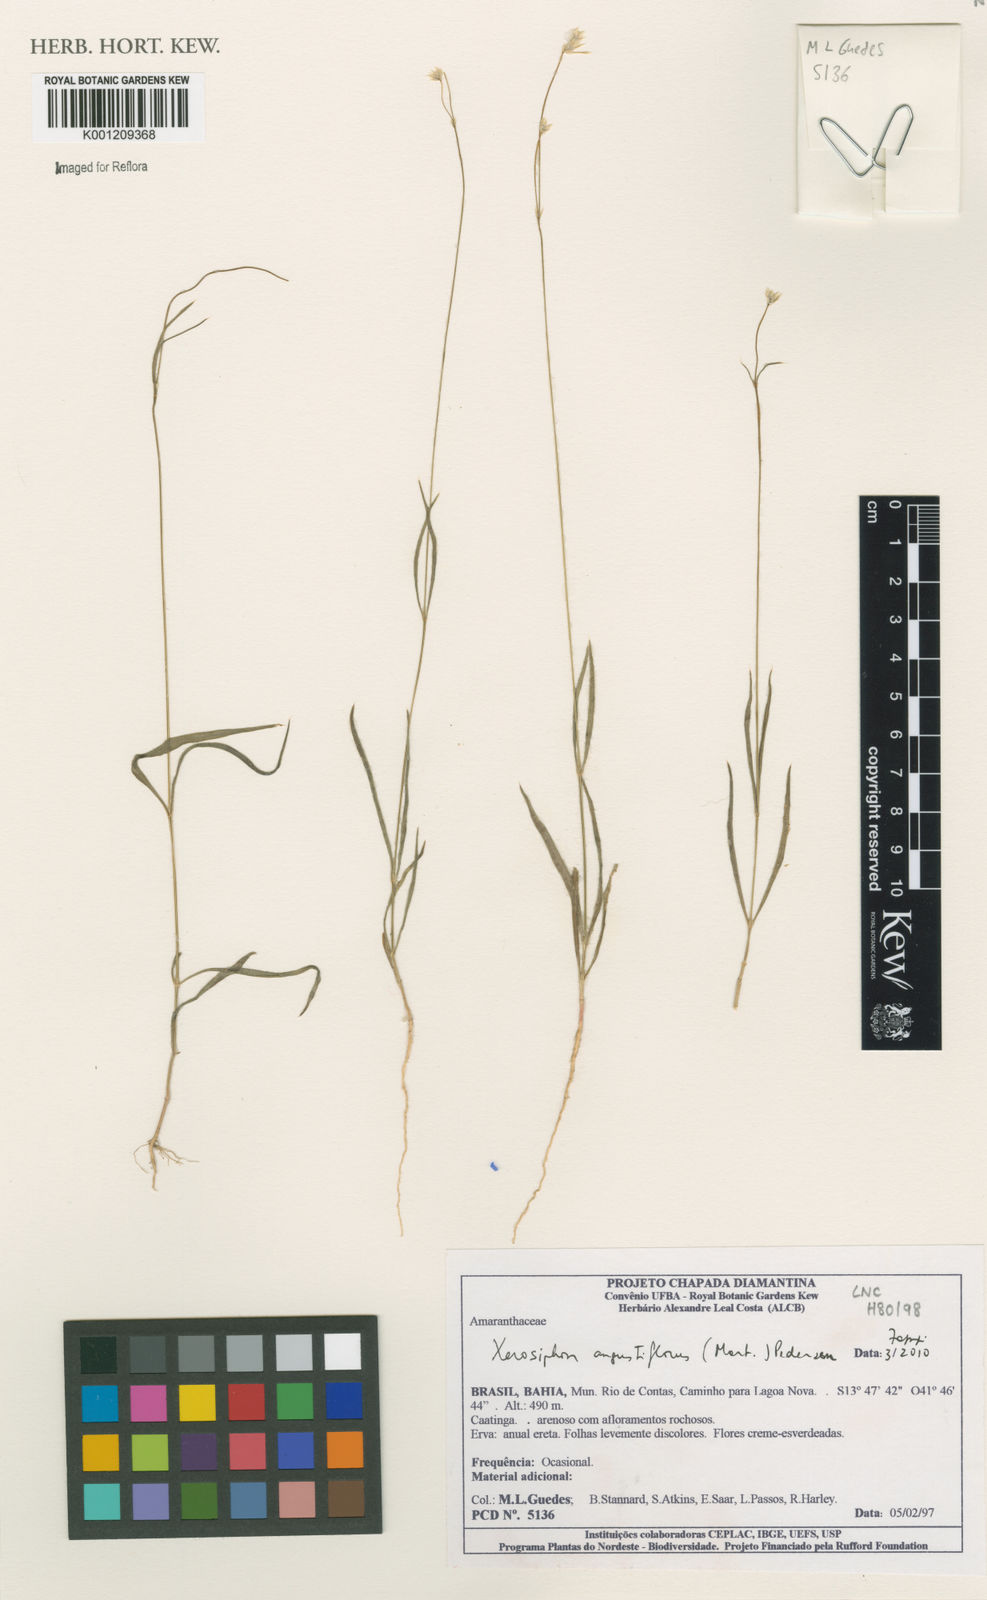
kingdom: Plantae
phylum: Tracheophyta
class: Magnoliopsida
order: Caryophyllales
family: Amaranthaceae
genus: Gomphrena
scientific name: Gomphrena angustiflora
